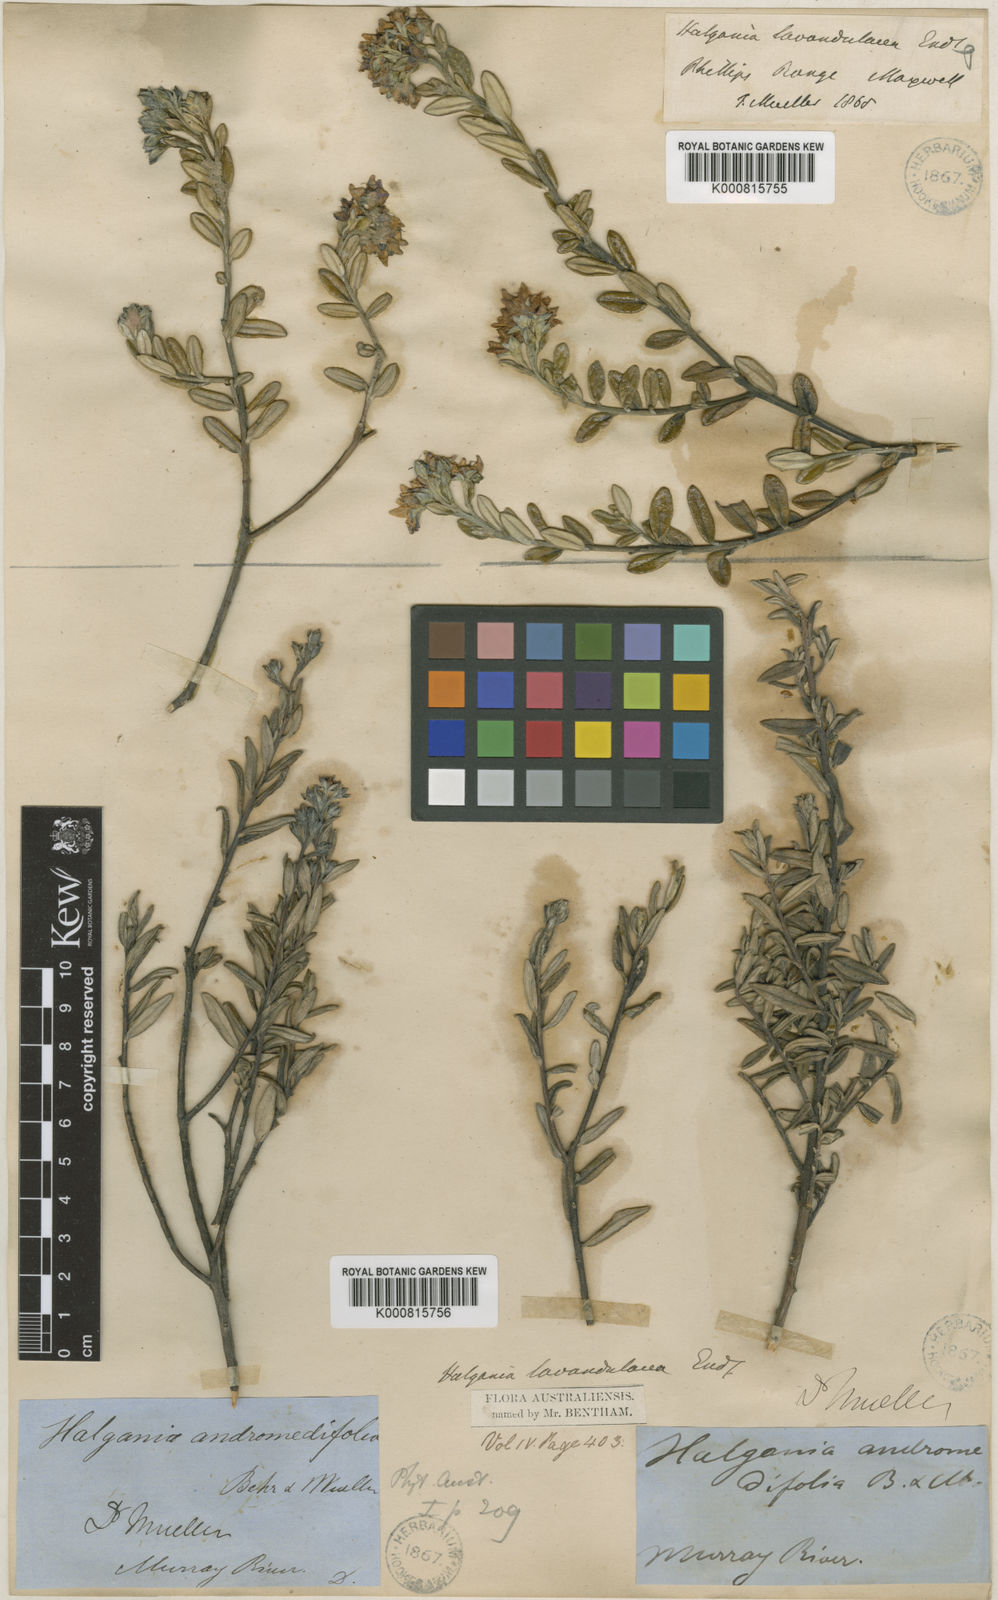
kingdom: Plantae
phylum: Tracheophyta
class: Magnoliopsida
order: Boraginales
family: Ehretiaceae
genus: Halgania
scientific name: Halgania andromedifolia
